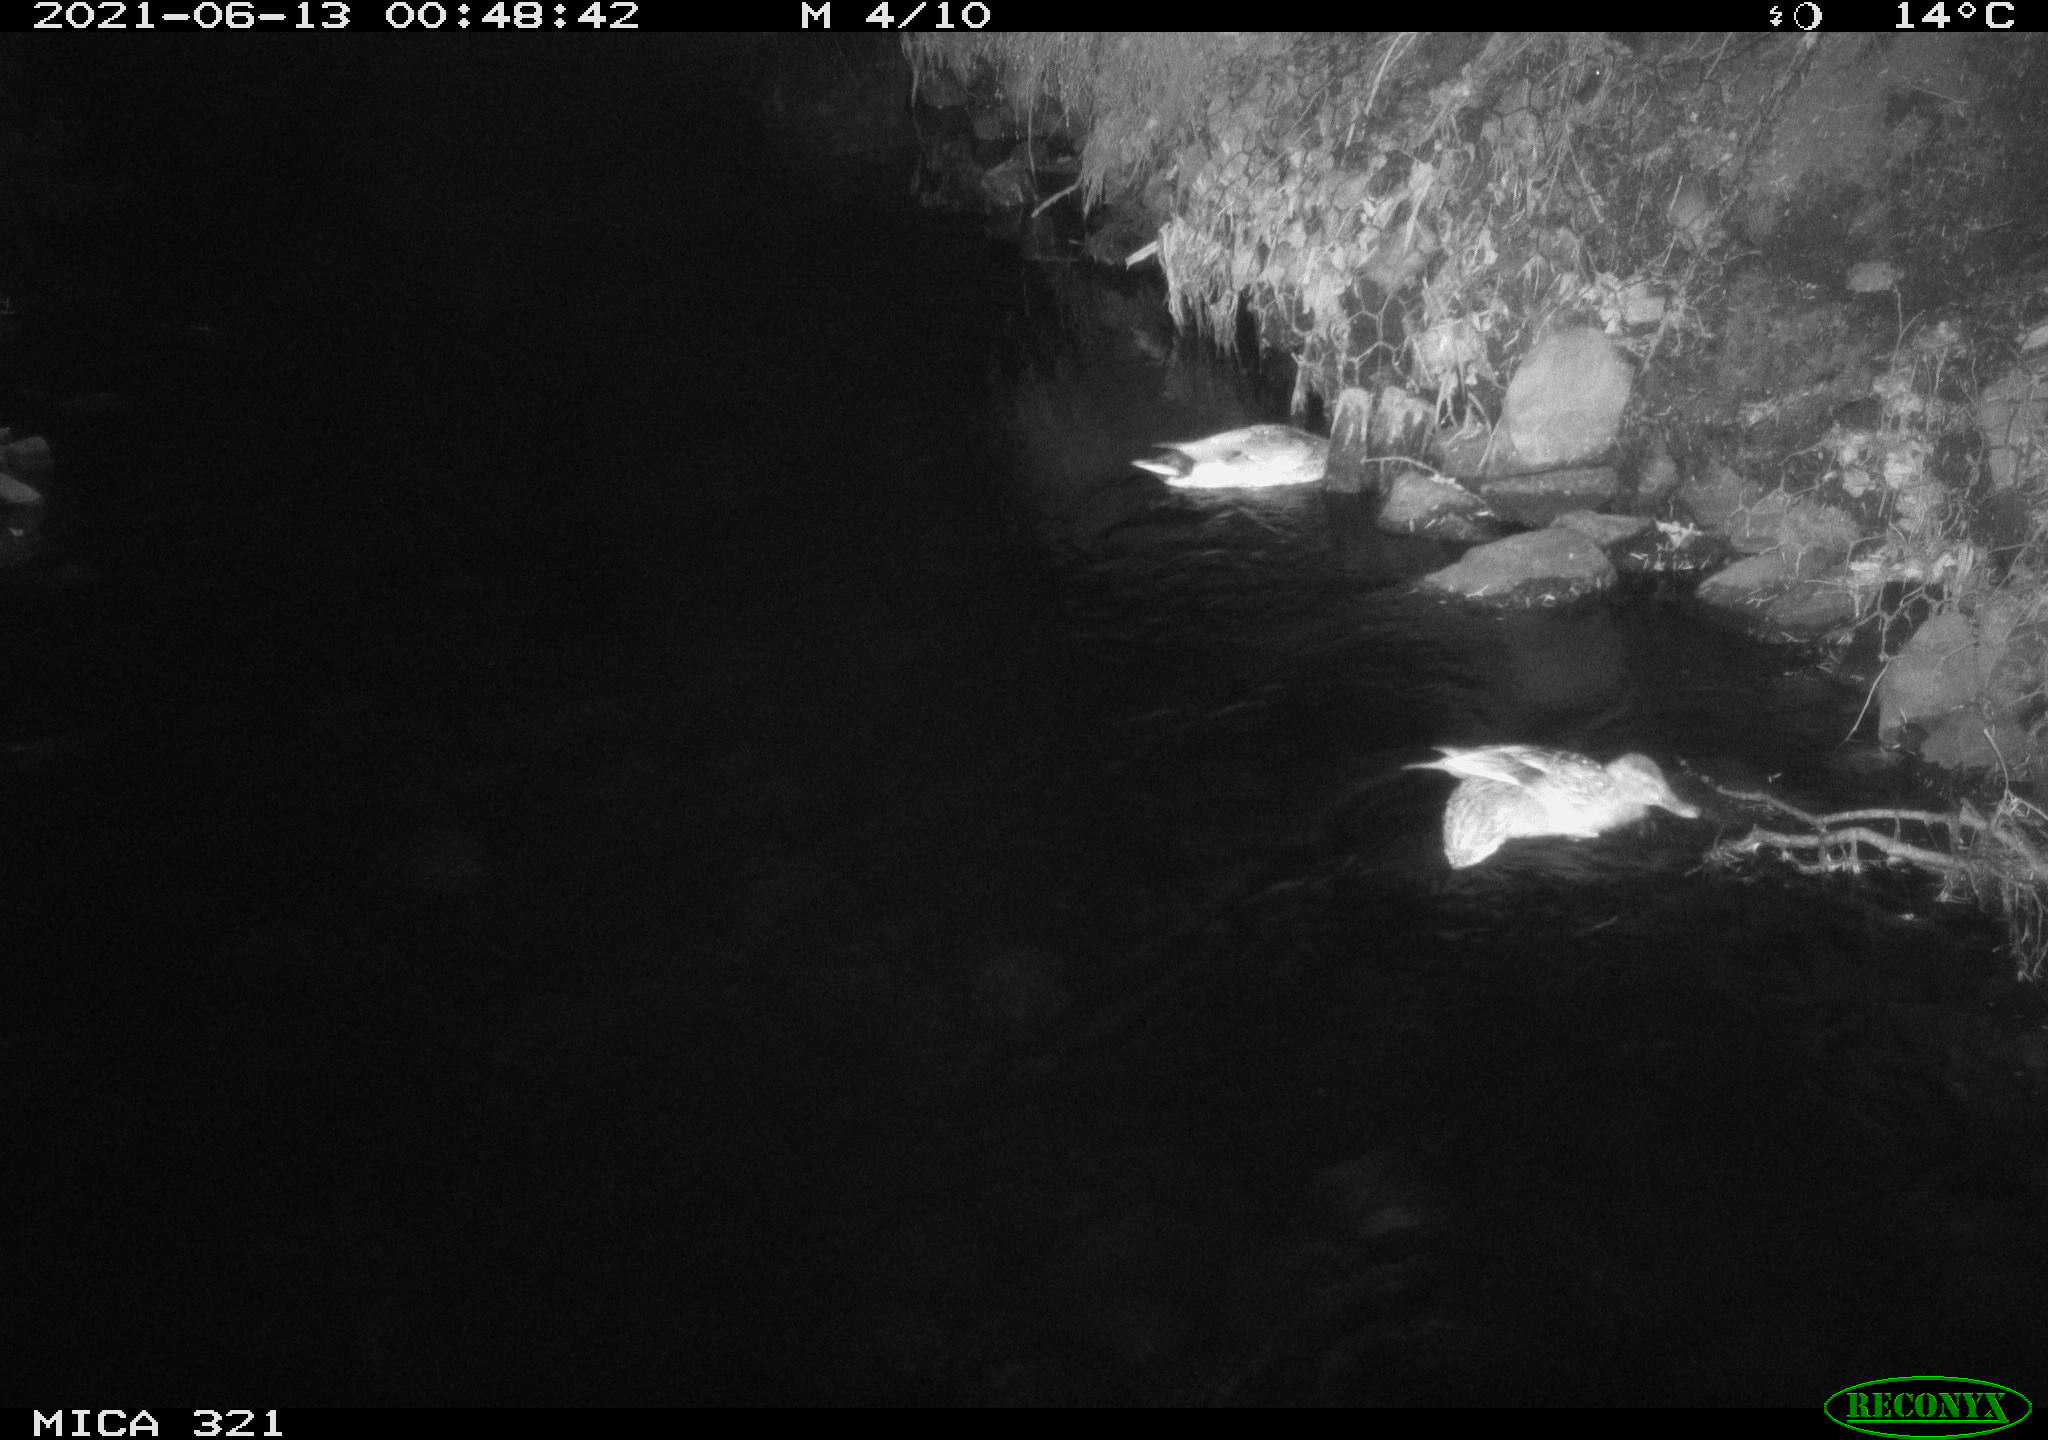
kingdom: Animalia
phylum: Chordata
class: Aves
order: Anseriformes
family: Anatidae
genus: Anas
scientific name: Anas platyrhynchos
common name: Mallard
